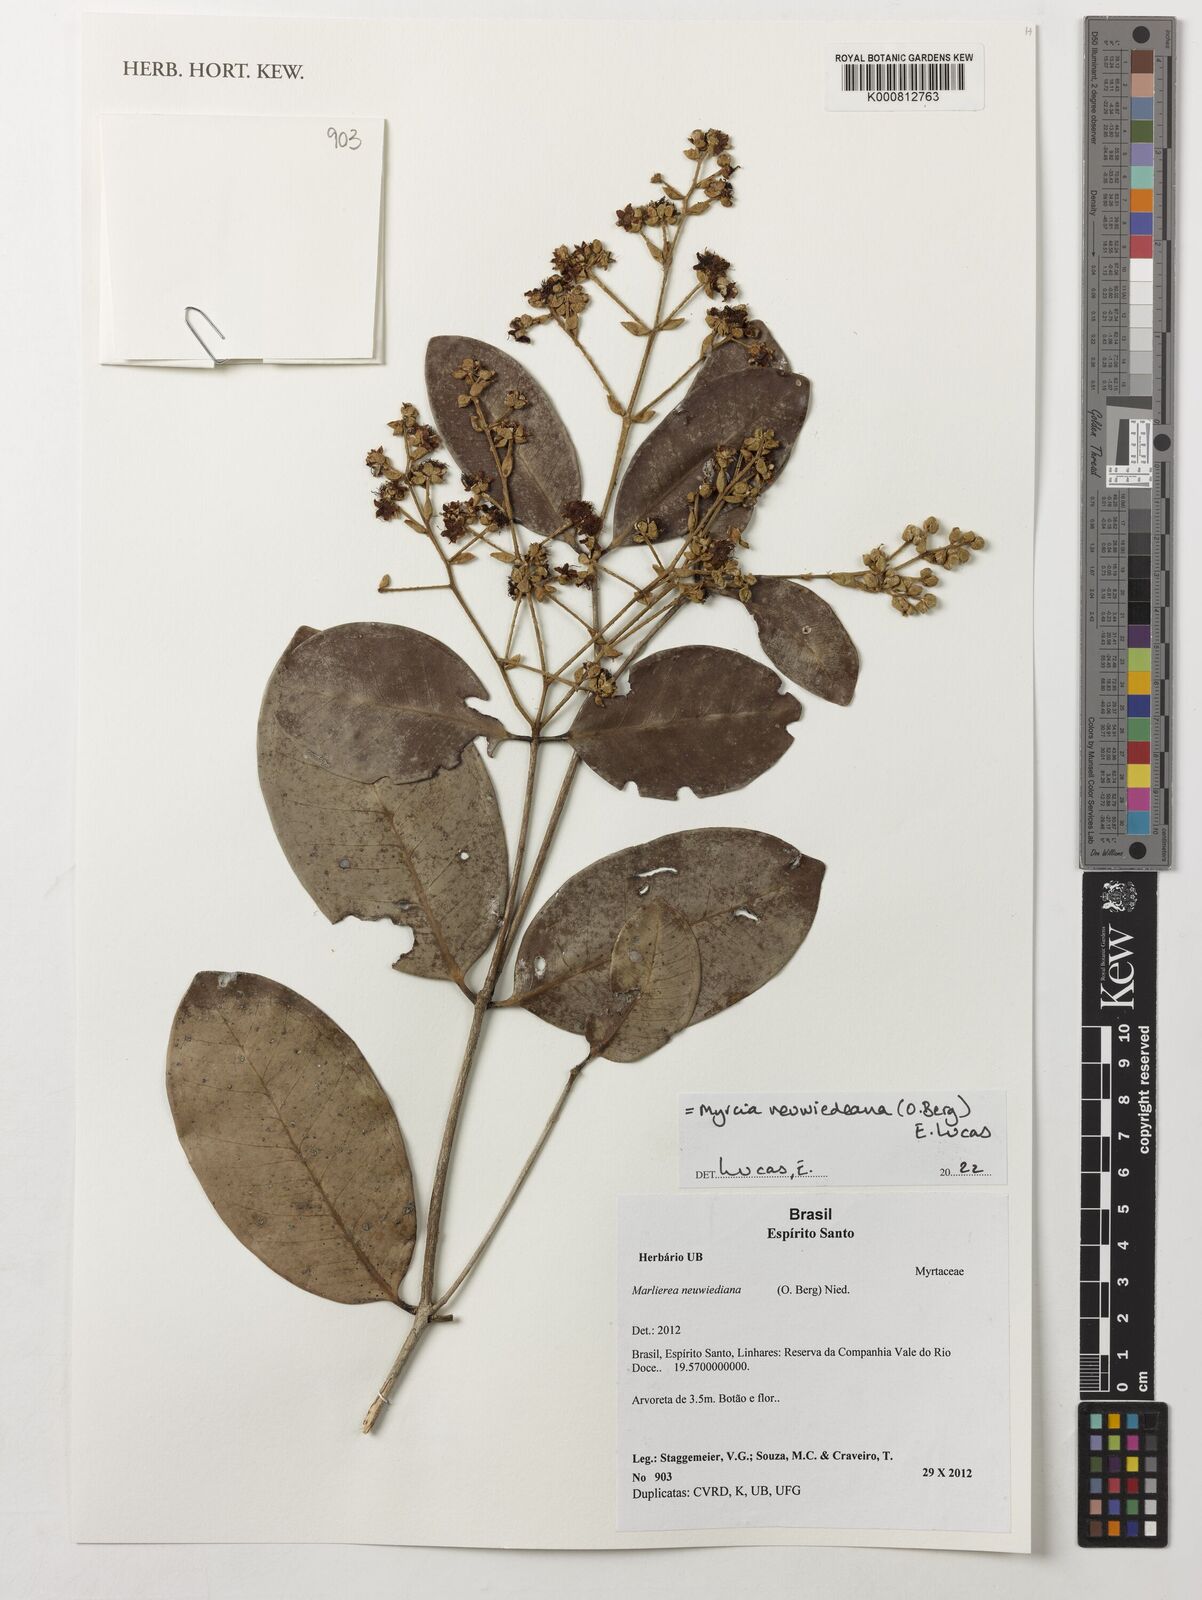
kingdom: Plantae
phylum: Tracheophyta
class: Magnoliopsida
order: Myrtales
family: Myrtaceae
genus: Myrcia
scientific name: Myrcia neuwiedeana
